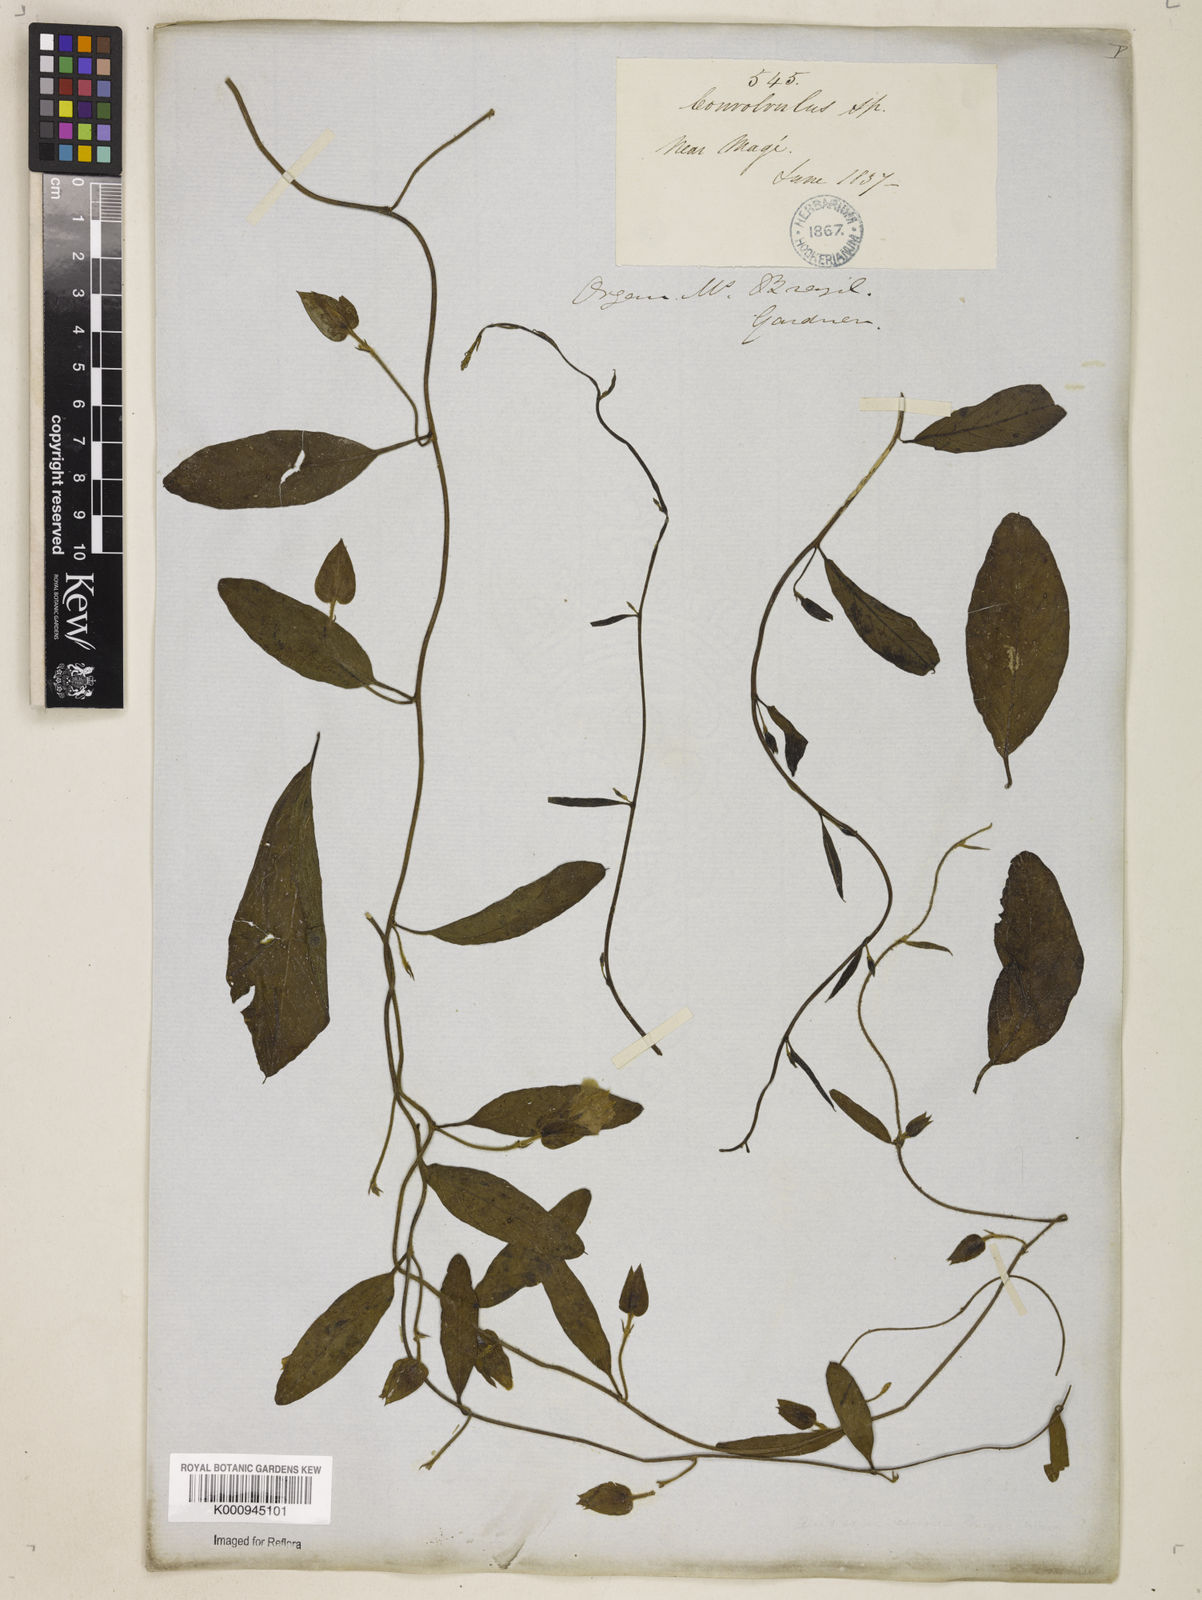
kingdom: Plantae
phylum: Tracheophyta
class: Magnoliopsida
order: Solanales
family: Convolvulaceae
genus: Aniseia
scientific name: Aniseia martinicensis
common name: Kulayadambu
